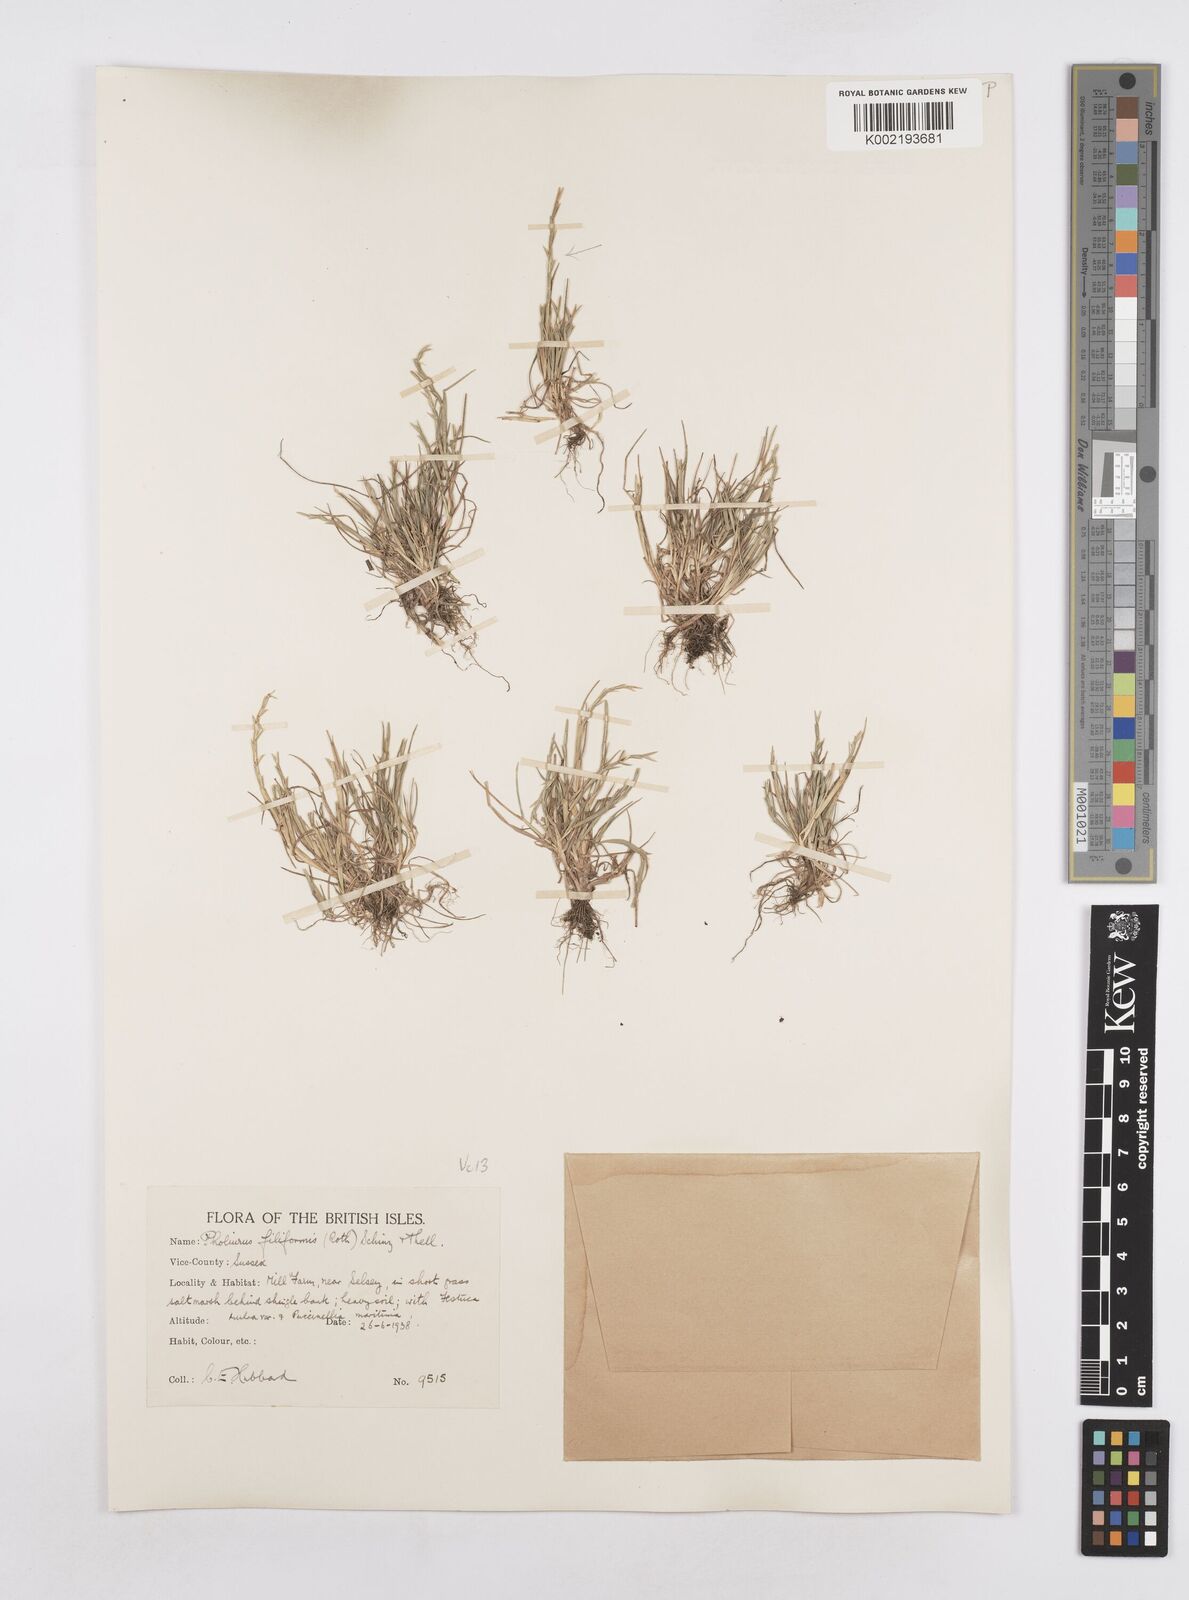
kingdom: Plantae
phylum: Tracheophyta
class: Liliopsida
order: Poales
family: Poaceae
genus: Parapholis
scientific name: Parapholis strigosa
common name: Hard-grass
